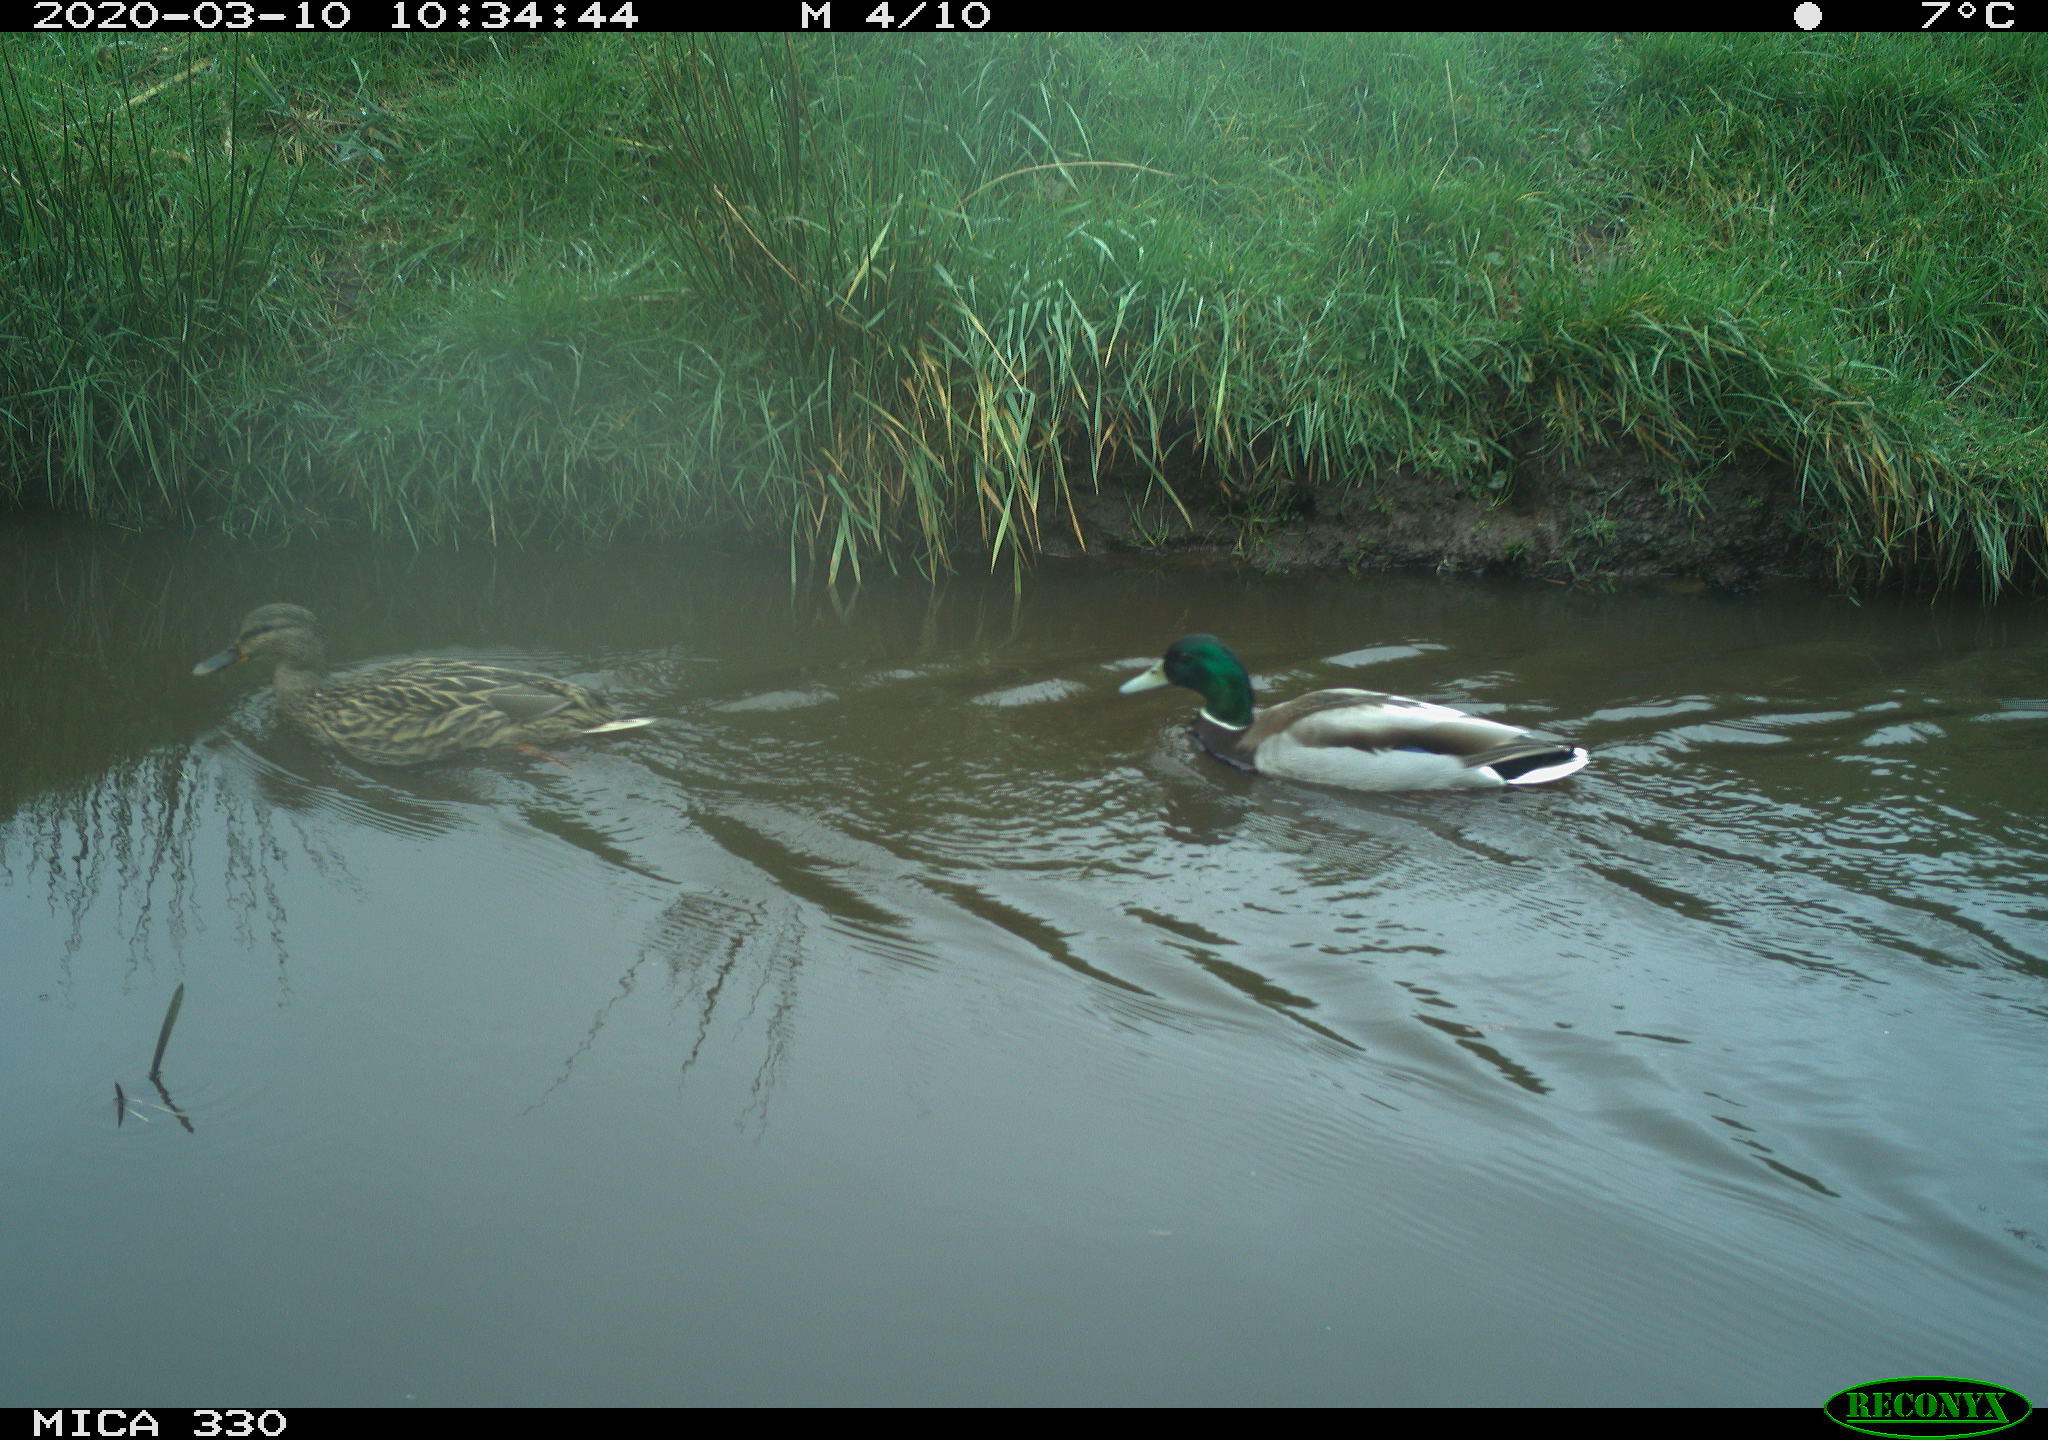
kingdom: Animalia
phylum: Chordata
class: Aves
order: Anseriformes
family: Anatidae
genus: Anas
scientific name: Anas platyrhynchos
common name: Mallard
